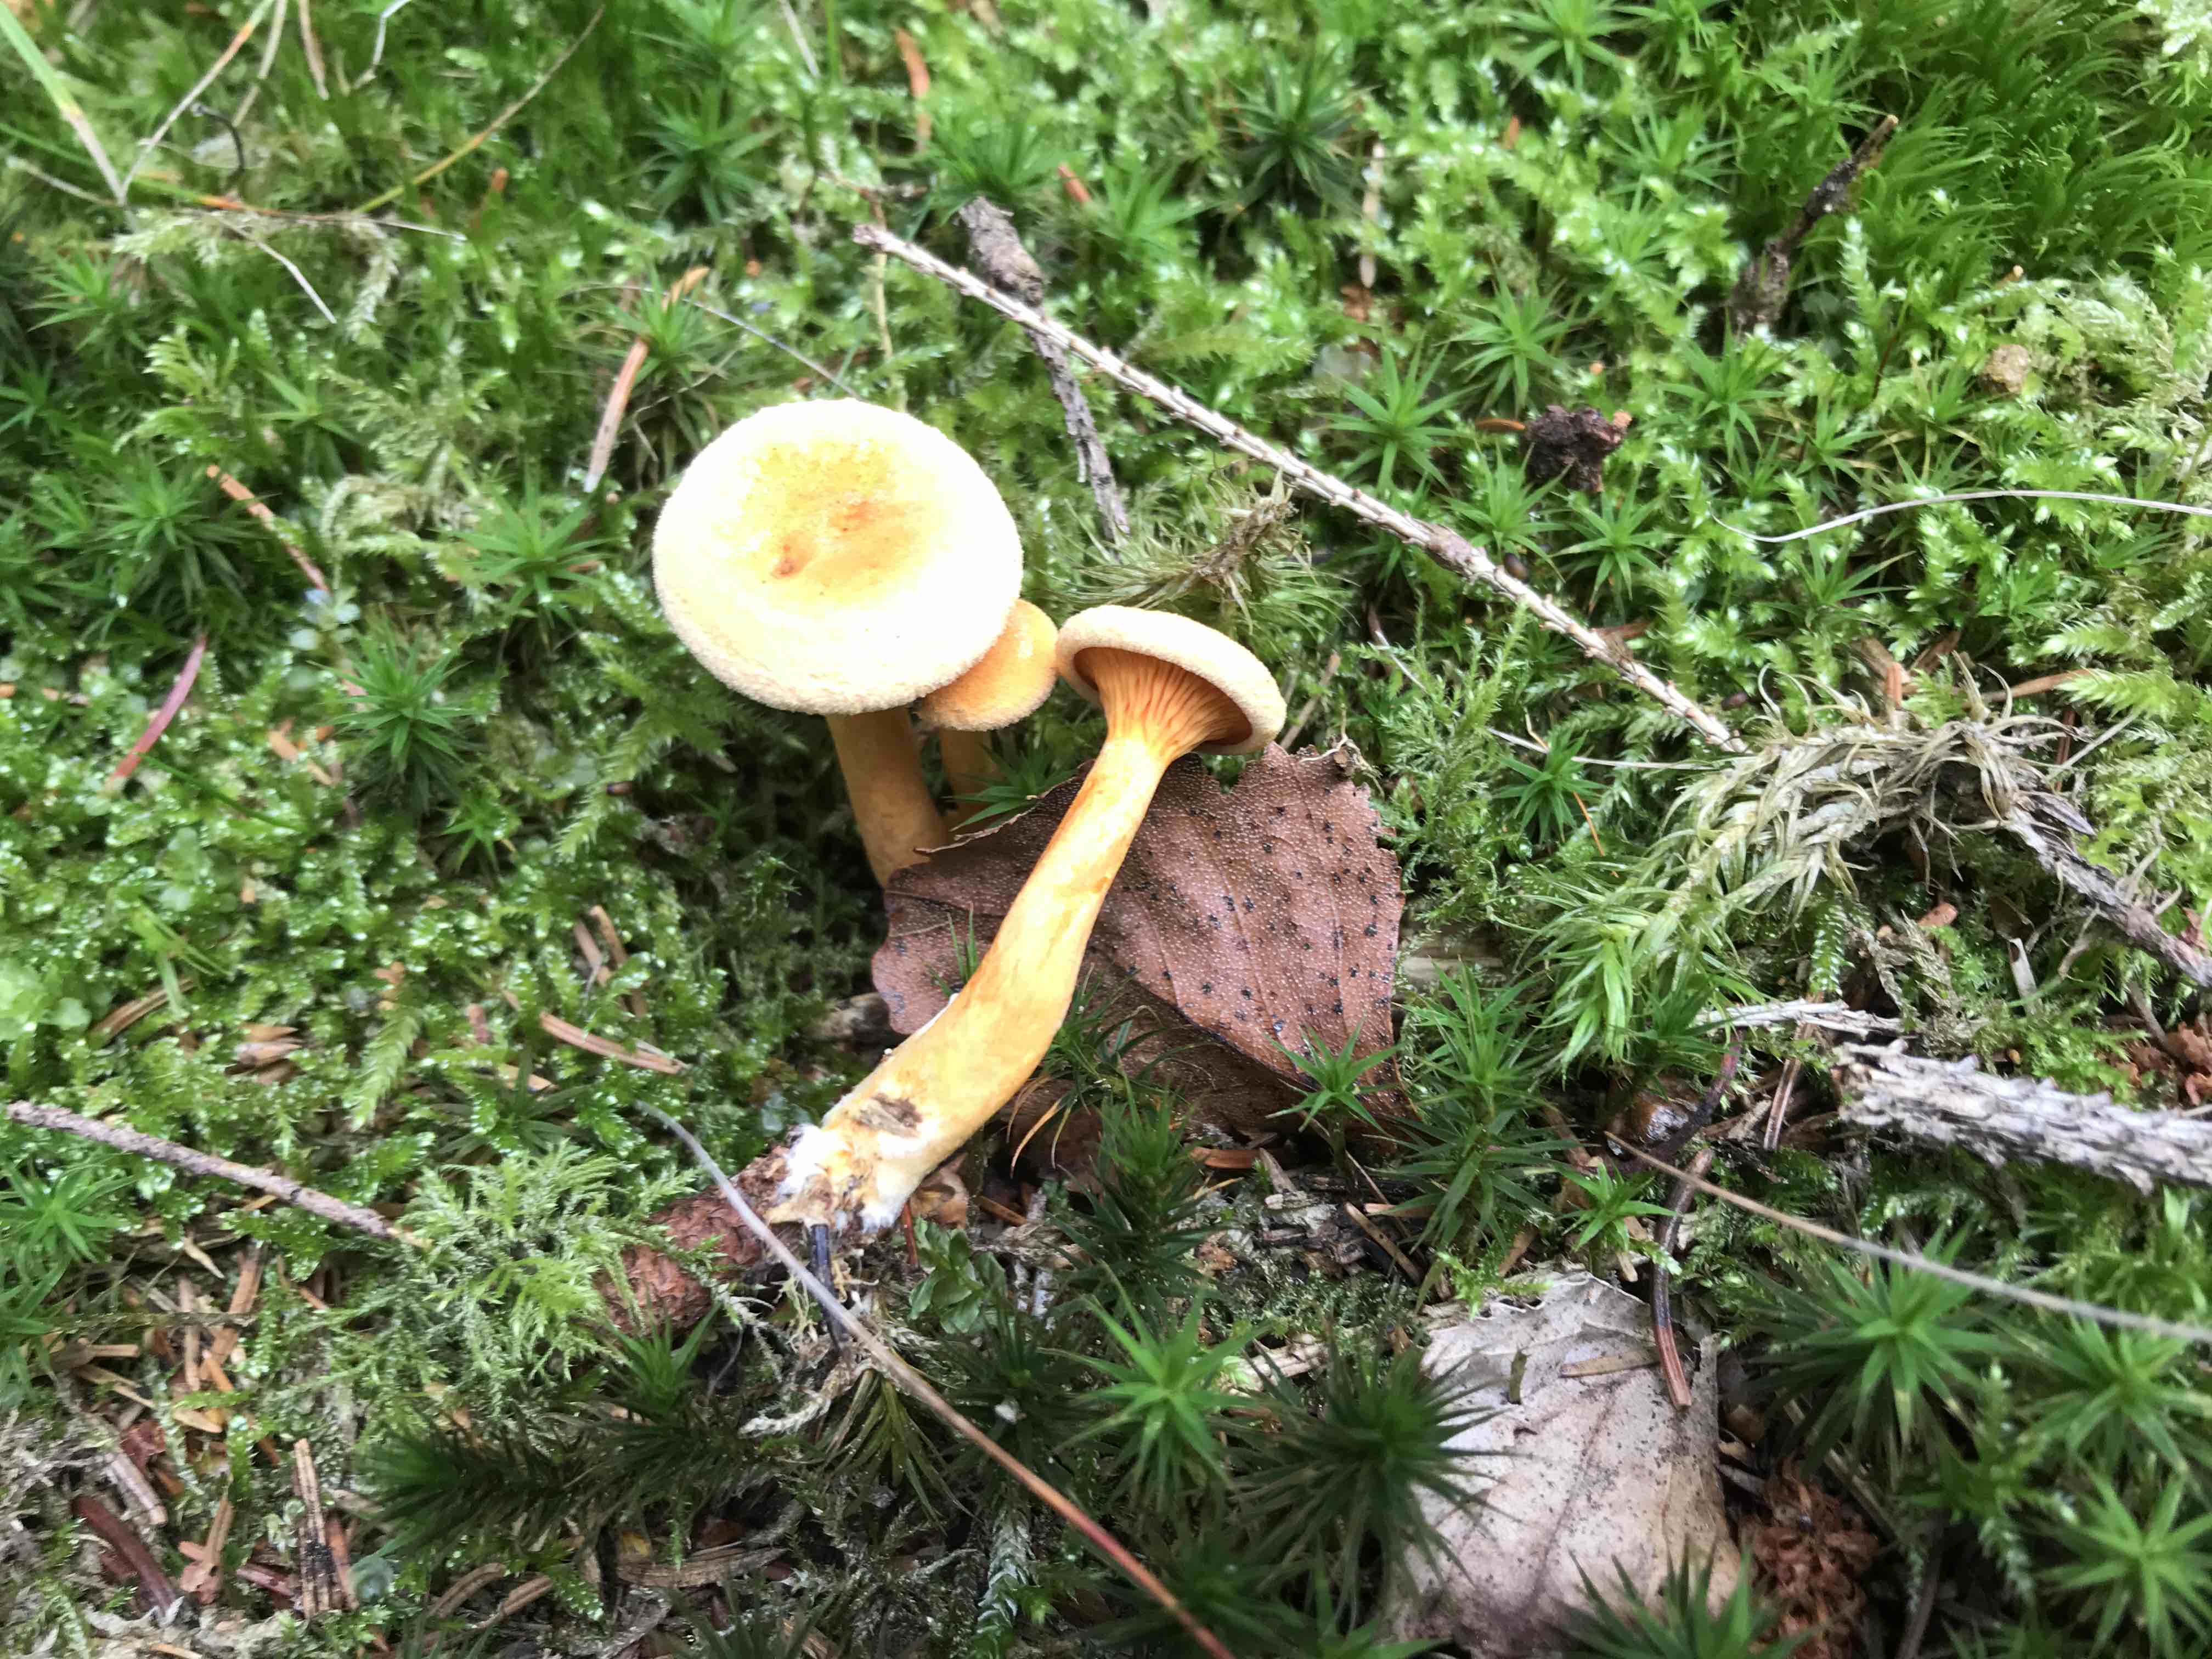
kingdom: Fungi
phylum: Basidiomycota
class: Agaricomycetes
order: Boletales
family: Hygrophoropsidaceae
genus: Hygrophoropsis
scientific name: Hygrophoropsis aurantiaca
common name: almindelig orangekantarel
